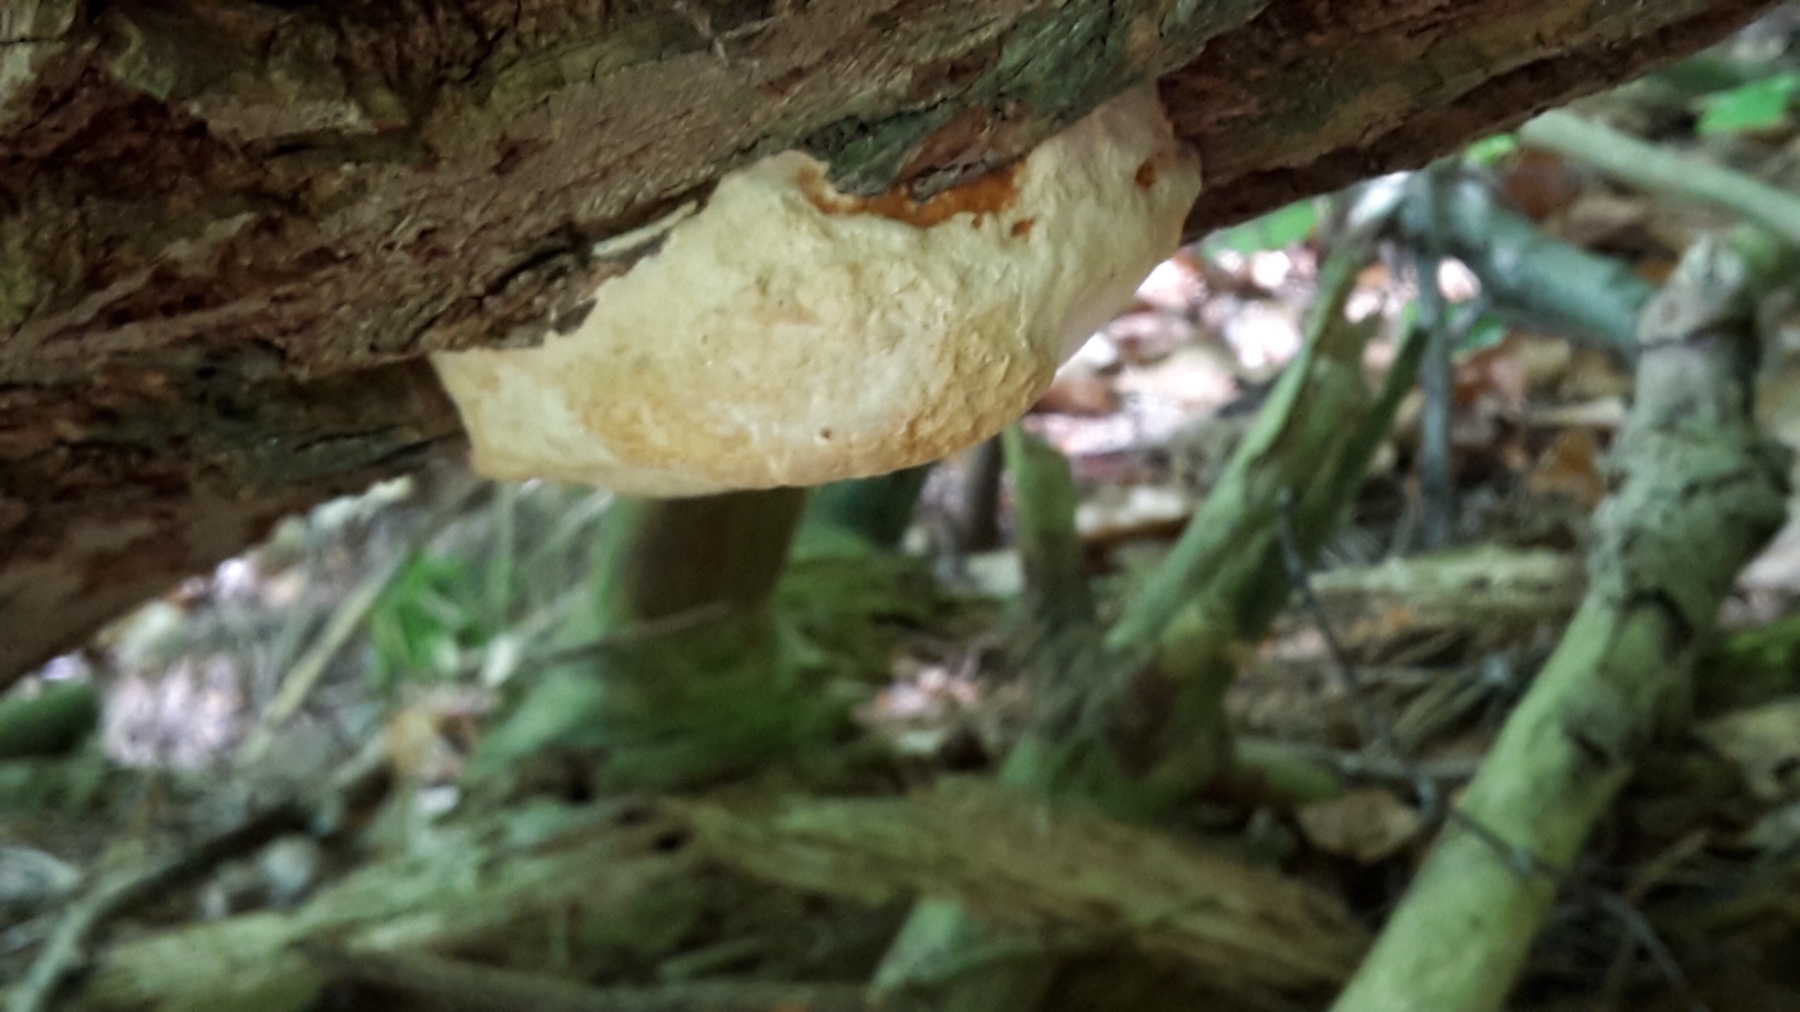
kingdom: Fungi
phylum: Basidiomycota
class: Agaricomycetes
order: Polyporales
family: Fomitopsidaceae
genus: Fomitopsis
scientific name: Fomitopsis pinicola
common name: randbæltet hovporesvamp
